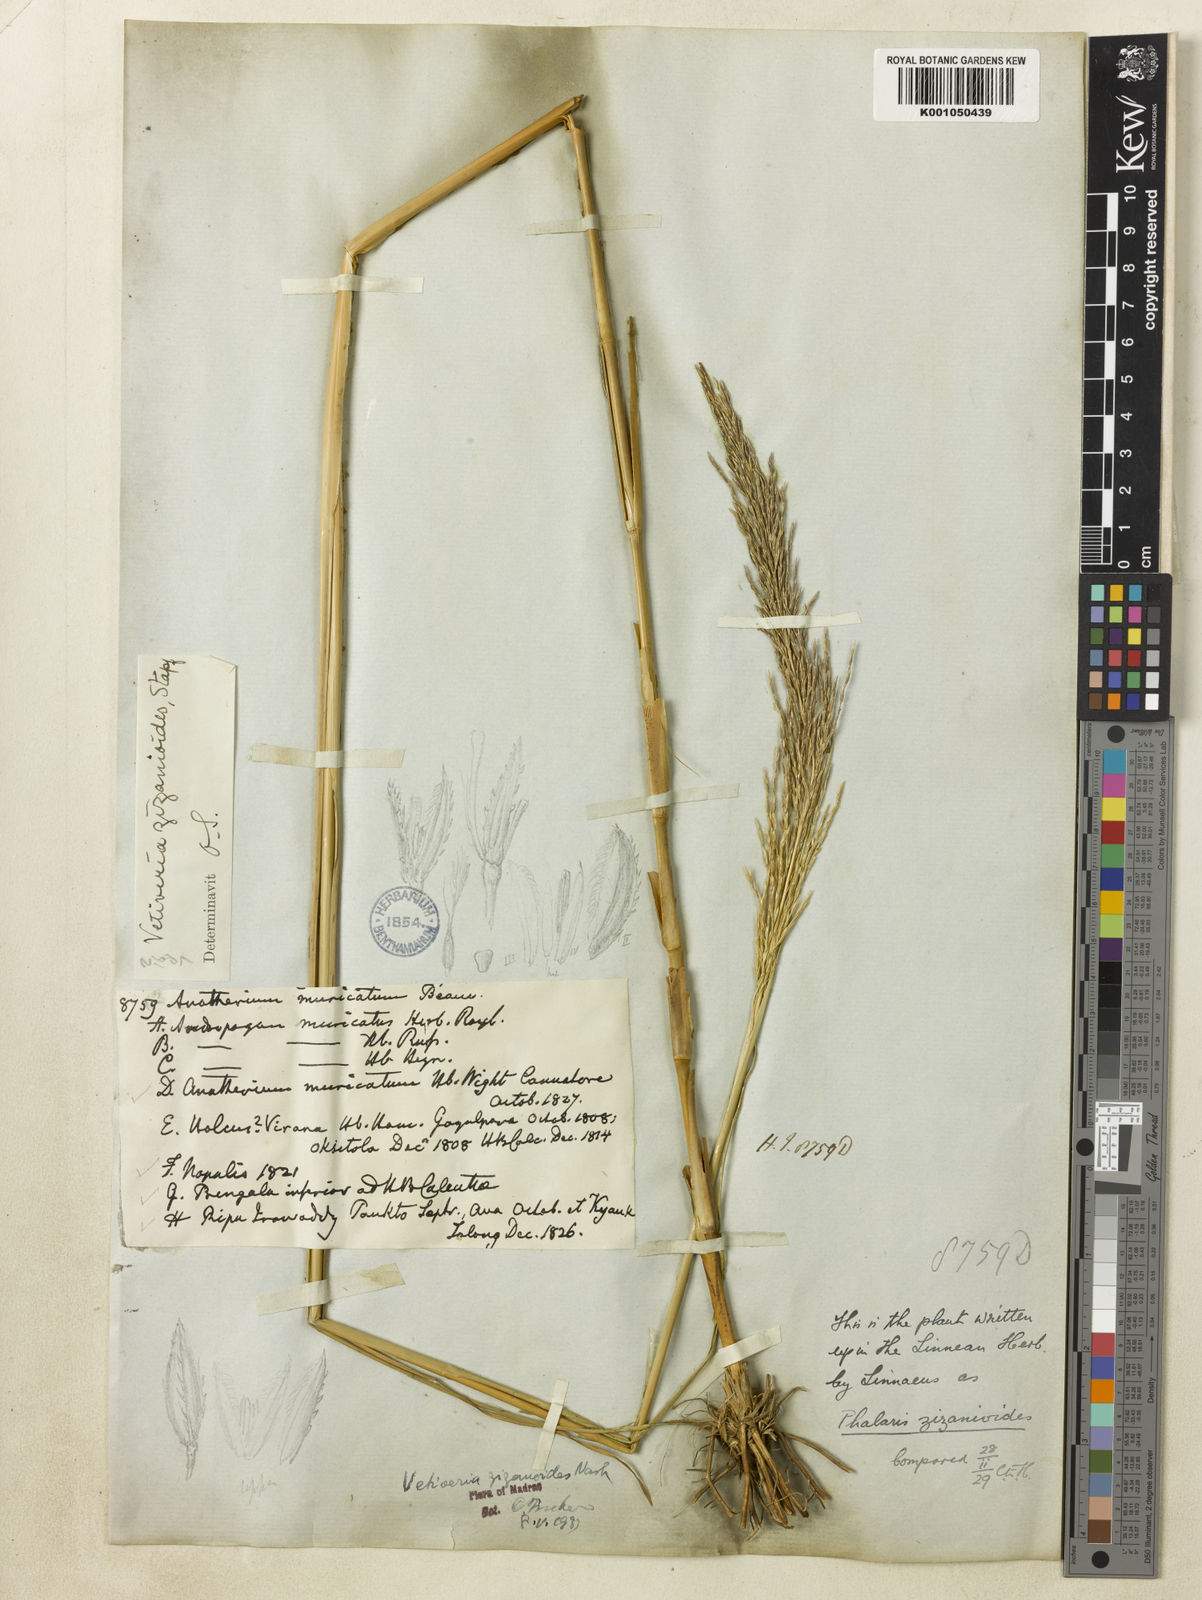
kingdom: Plantae
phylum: Tracheophyta
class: Liliopsida
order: Poales
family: Poaceae
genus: Chrysopogon
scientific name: Chrysopogon zizanioides
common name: False beardgrass
